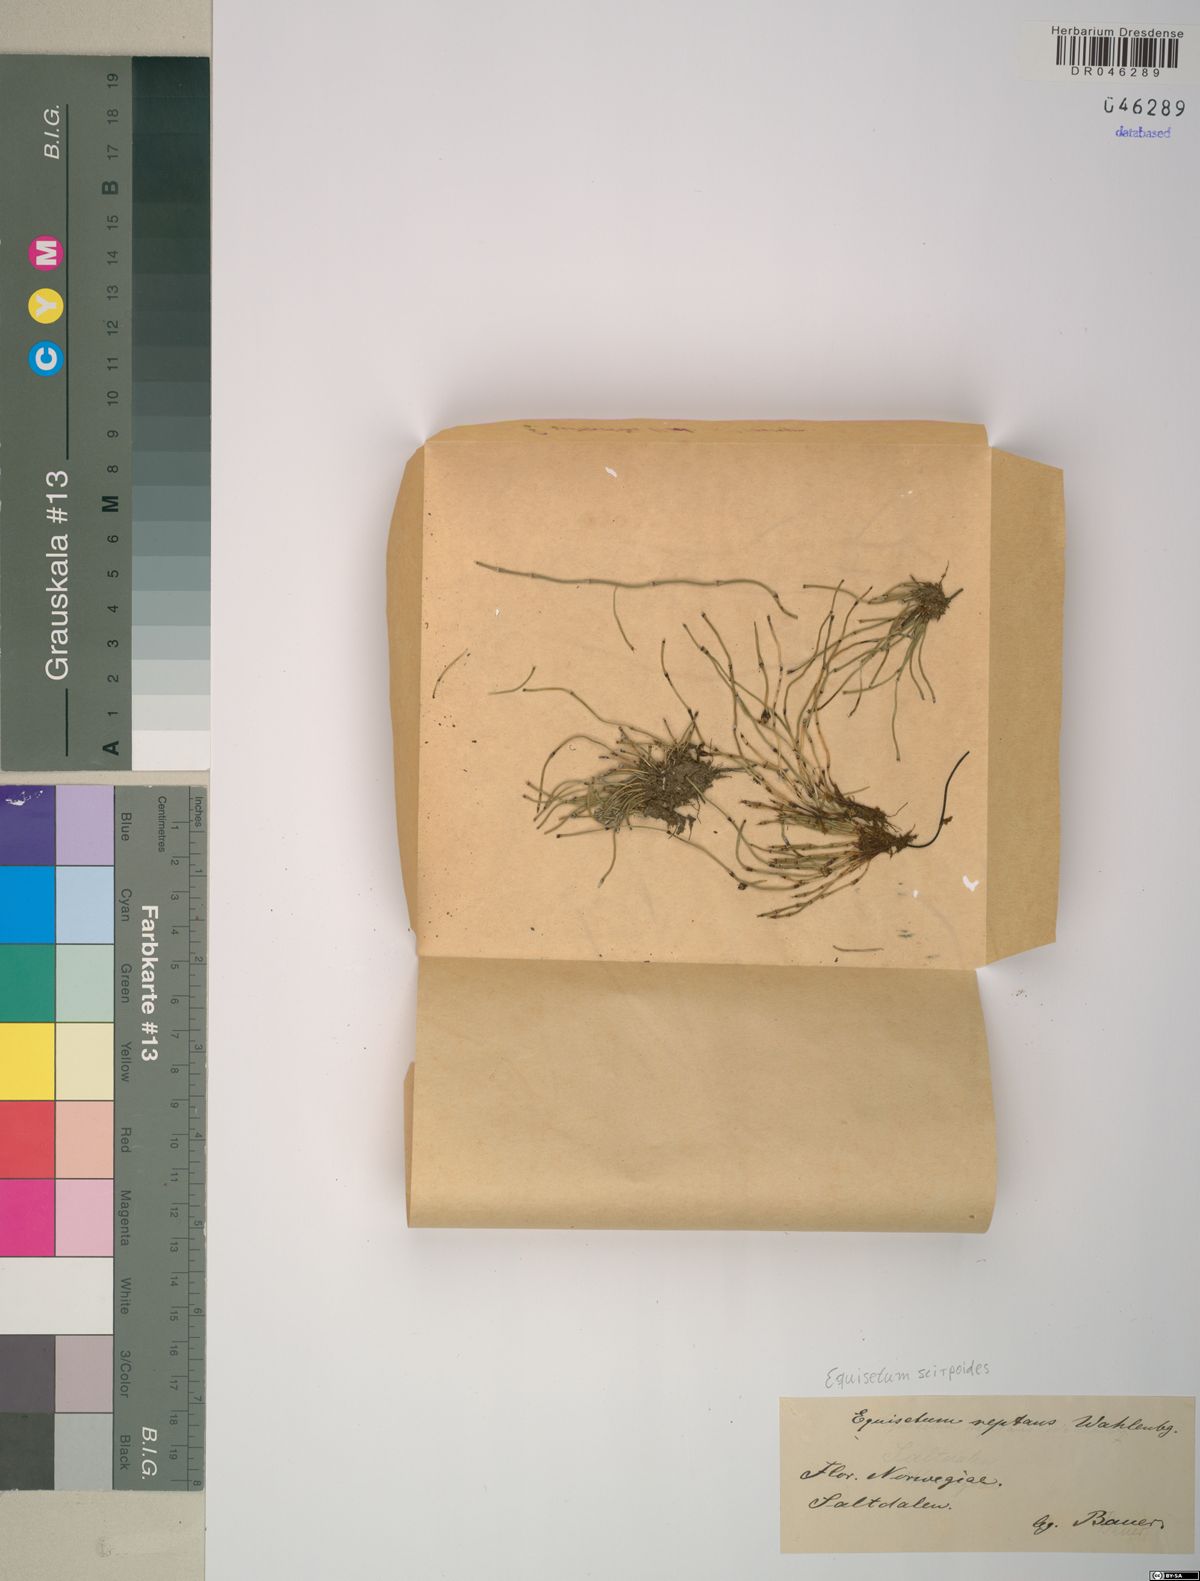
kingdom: Plantae
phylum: Tracheophyta
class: Polypodiopsida
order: Equisetales
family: Equisetaceae
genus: Equisetum
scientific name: Equisetum scirpoides
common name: Delicate horsetail
